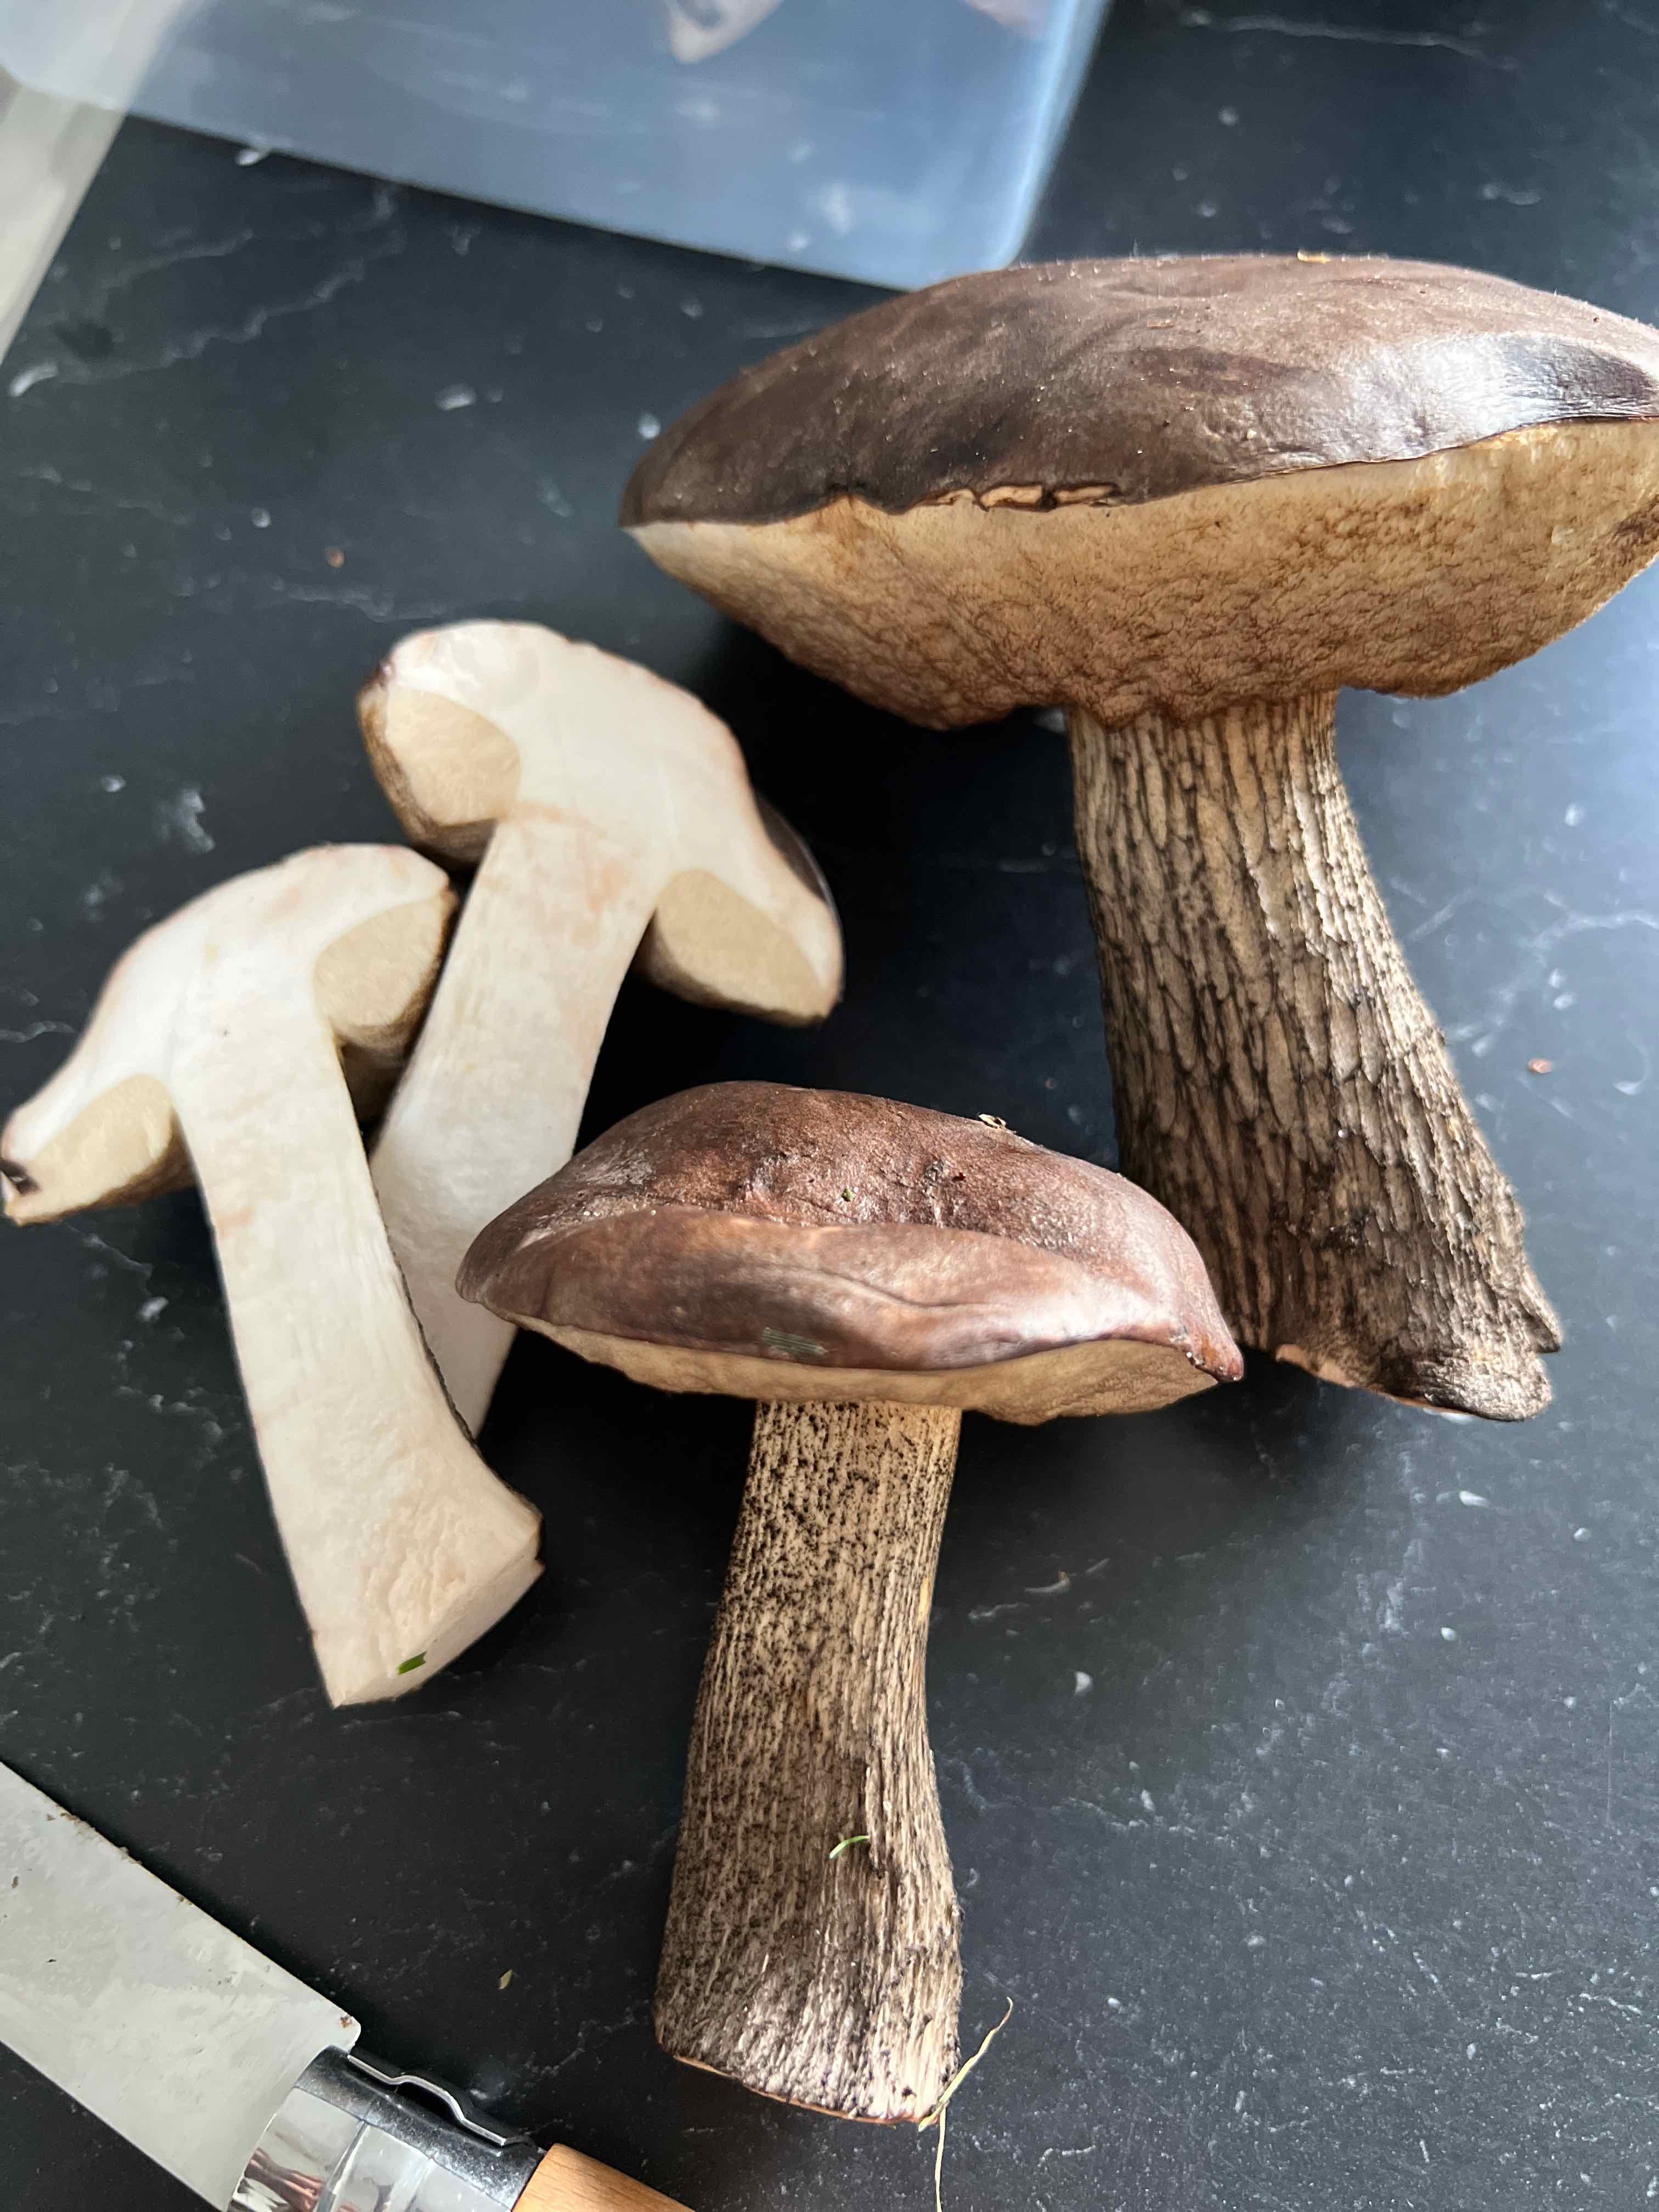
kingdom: Fungi
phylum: Basidiomycota
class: Agaricomycetes
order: Boletales
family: Boletaceae
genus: Leccinum
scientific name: Leccinum scabrum
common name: brun skælrørhat
